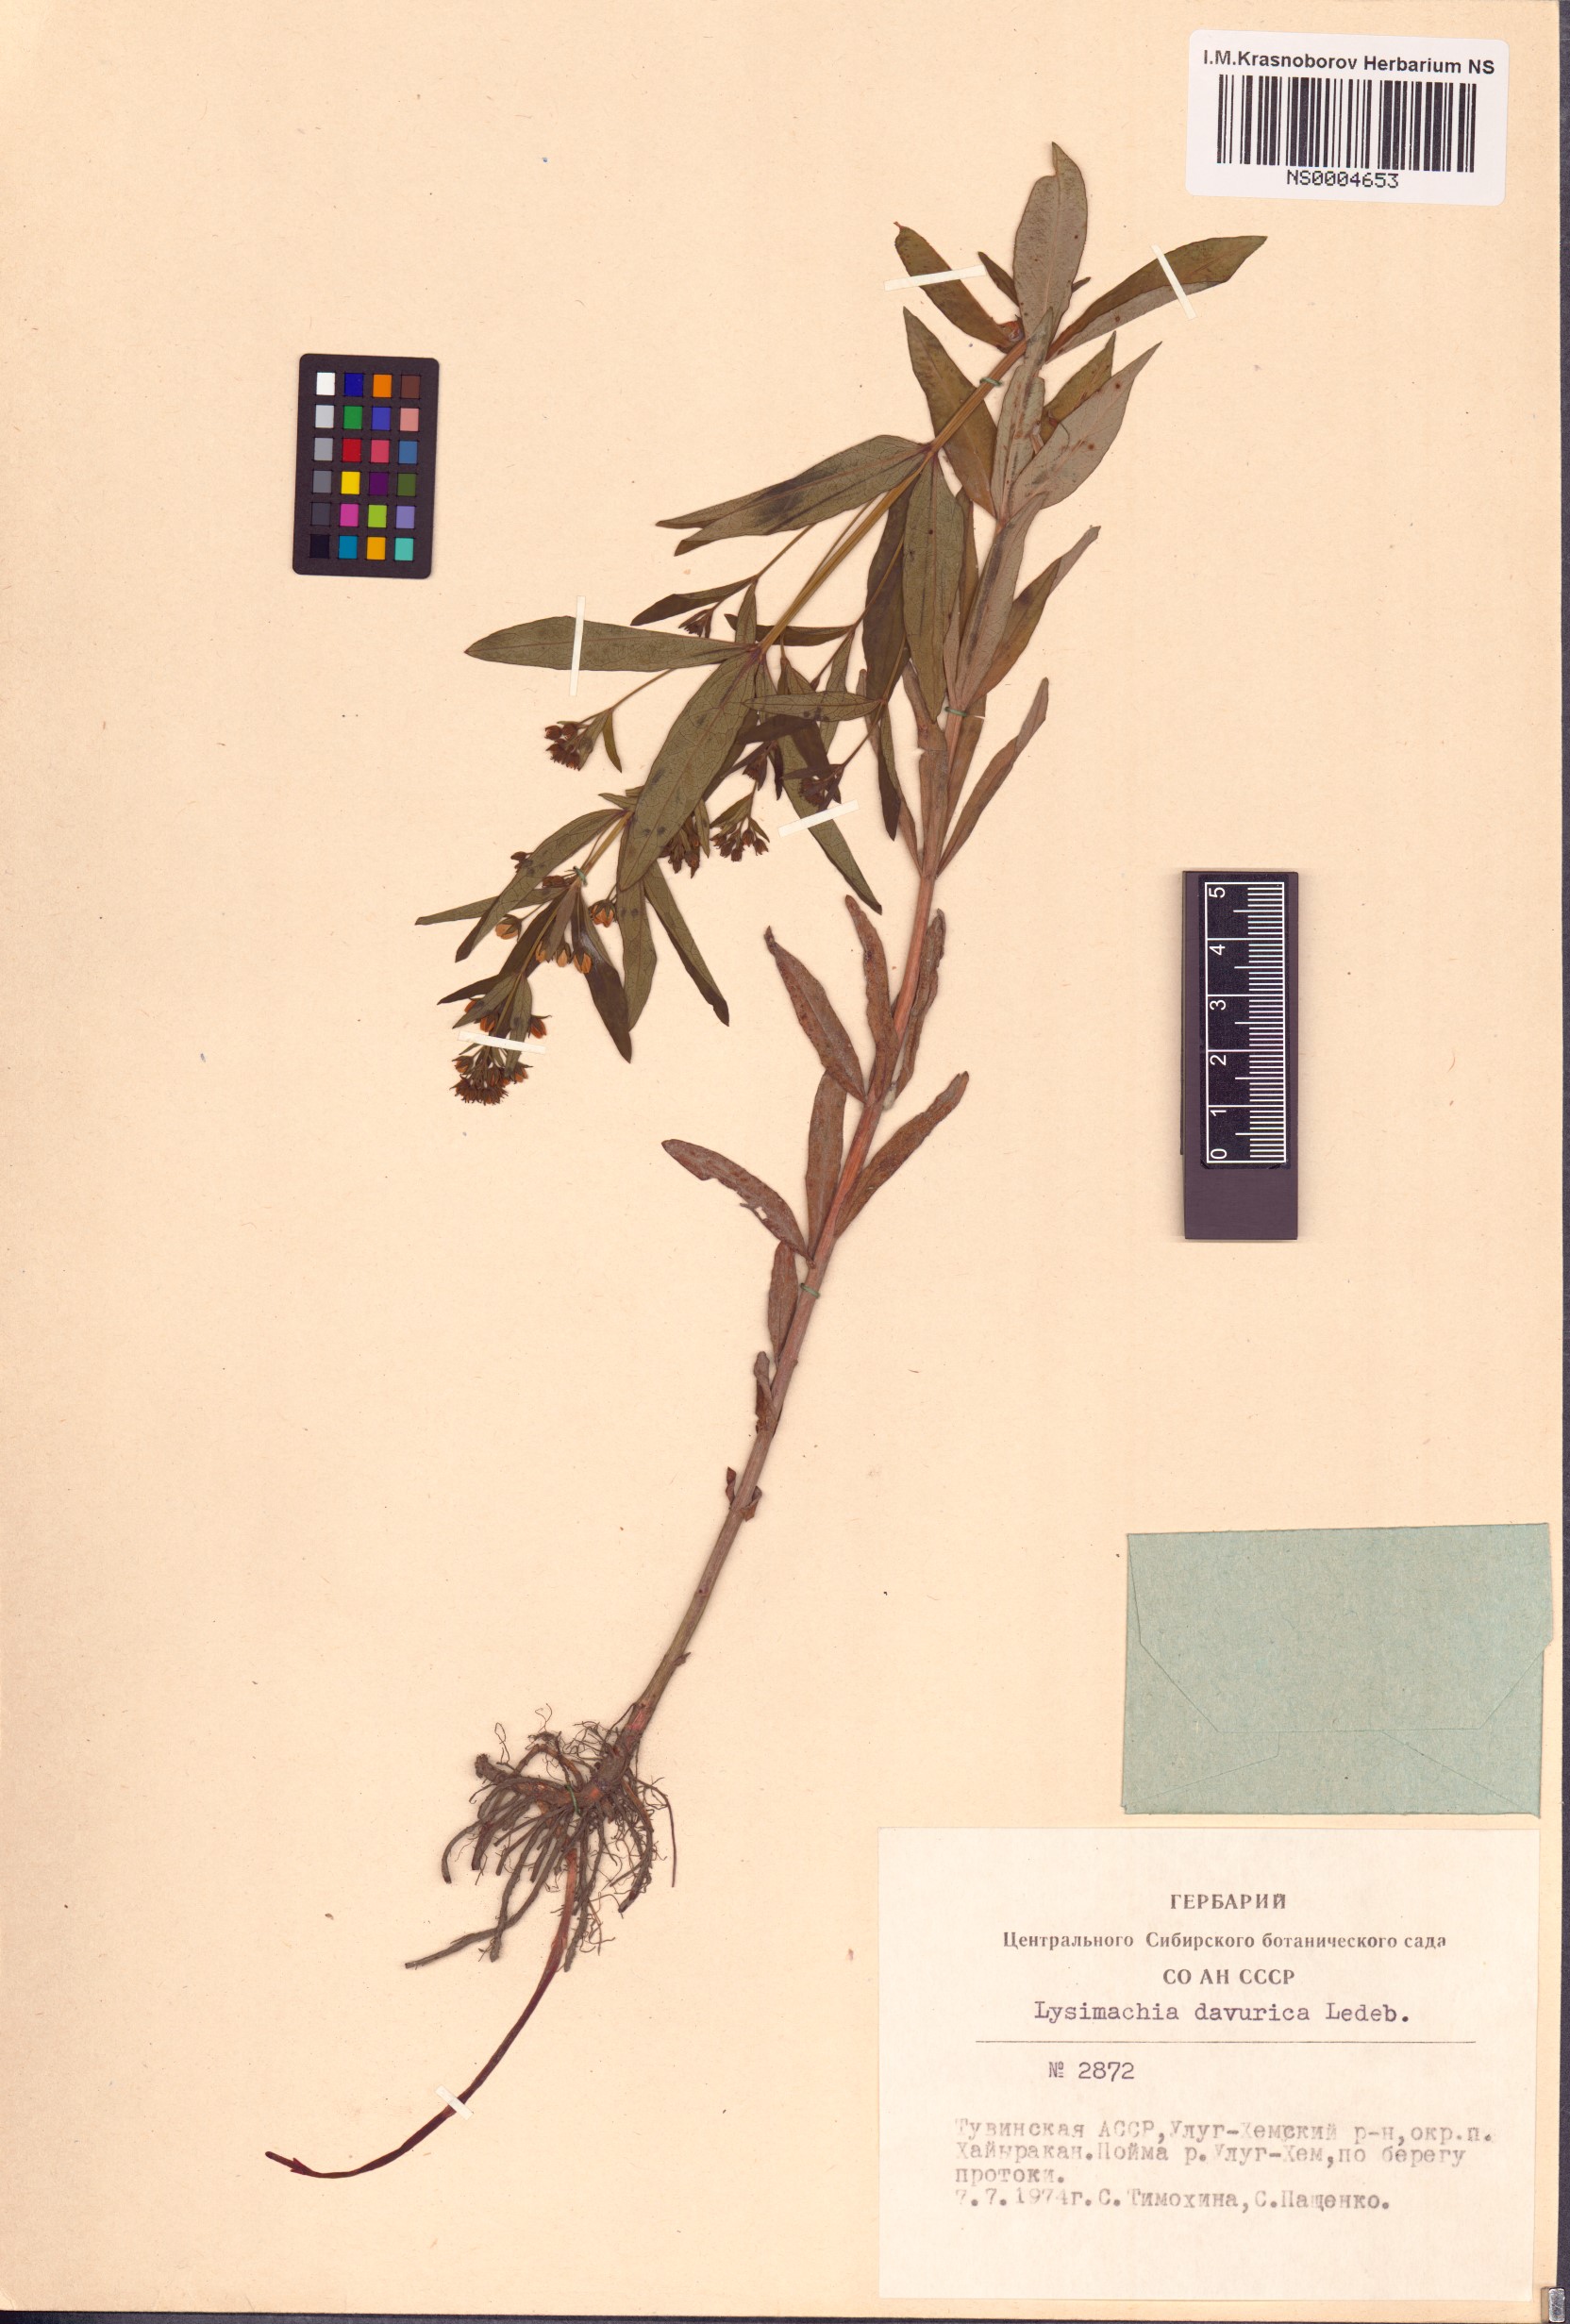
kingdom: Plantae
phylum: Tracheophyta
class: Magnoliopsida
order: Ericales
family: Primulaceae
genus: Lysimachia
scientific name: Lysimachia davurica
